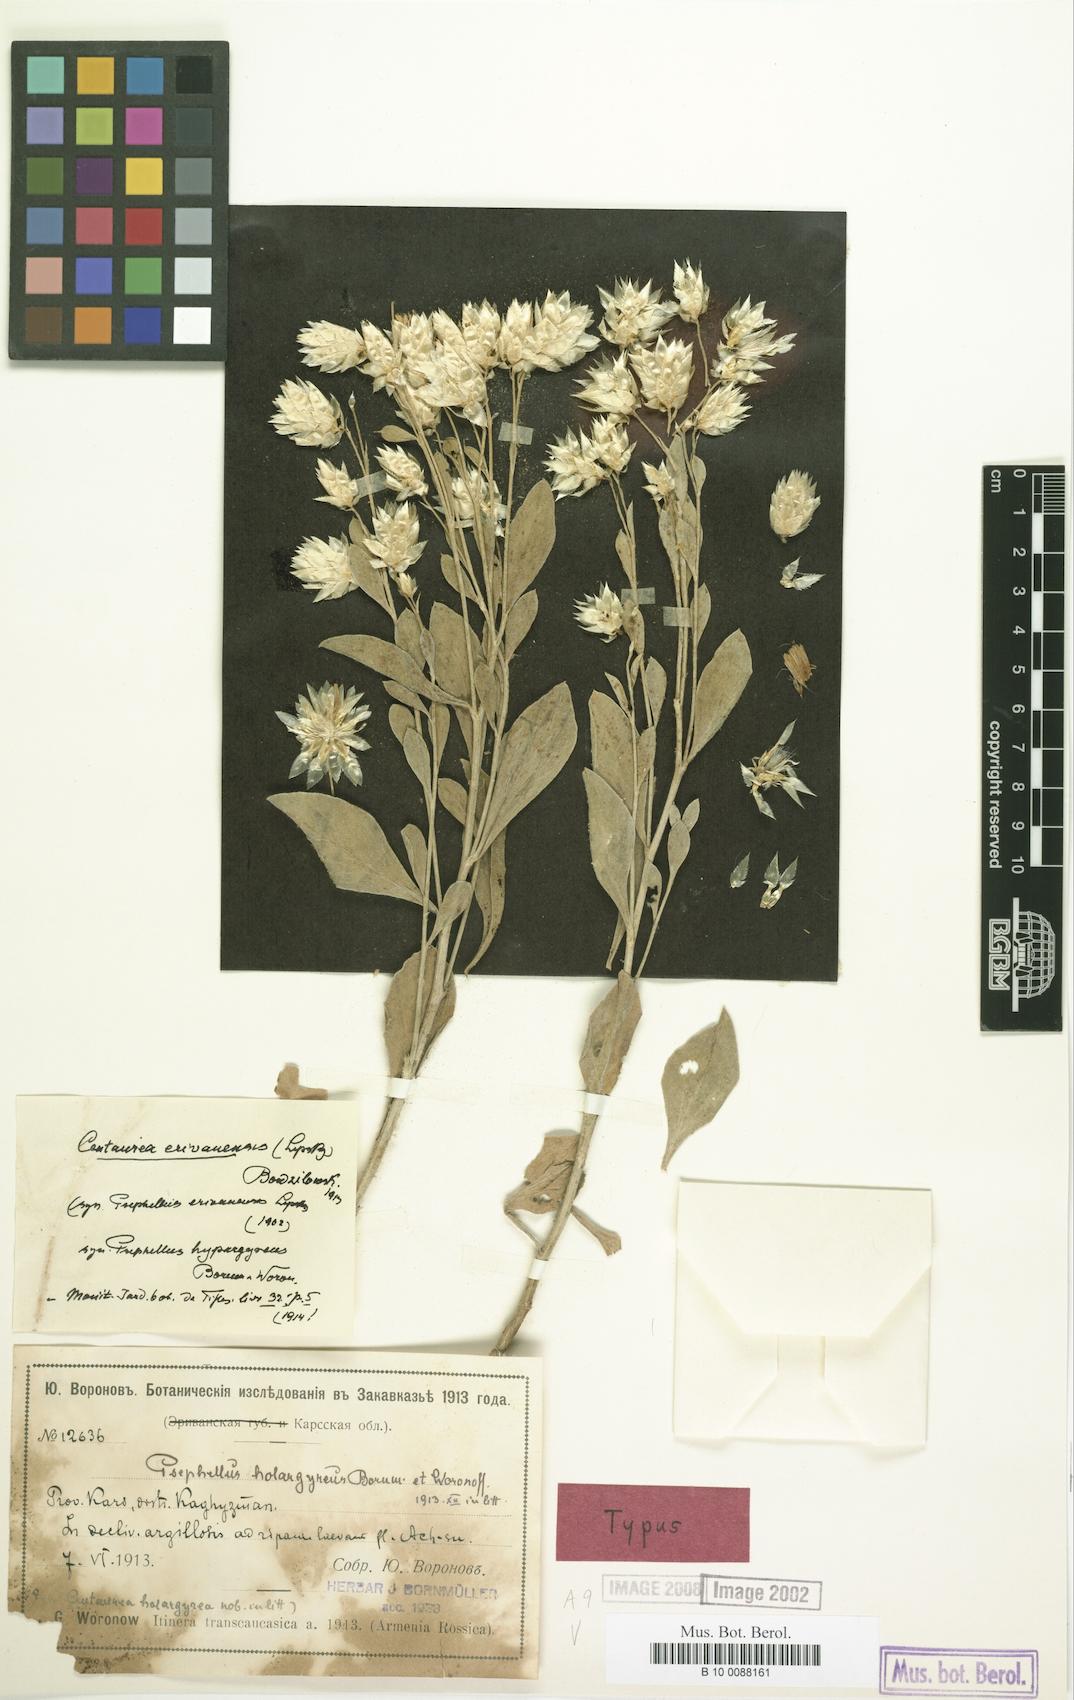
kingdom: Plantae
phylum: Tracheophyta
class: Magnoliopsida
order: Asterales
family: Asteraceae
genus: Psephellus
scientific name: Psephellus erivanensis
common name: Yerevanian centaury
